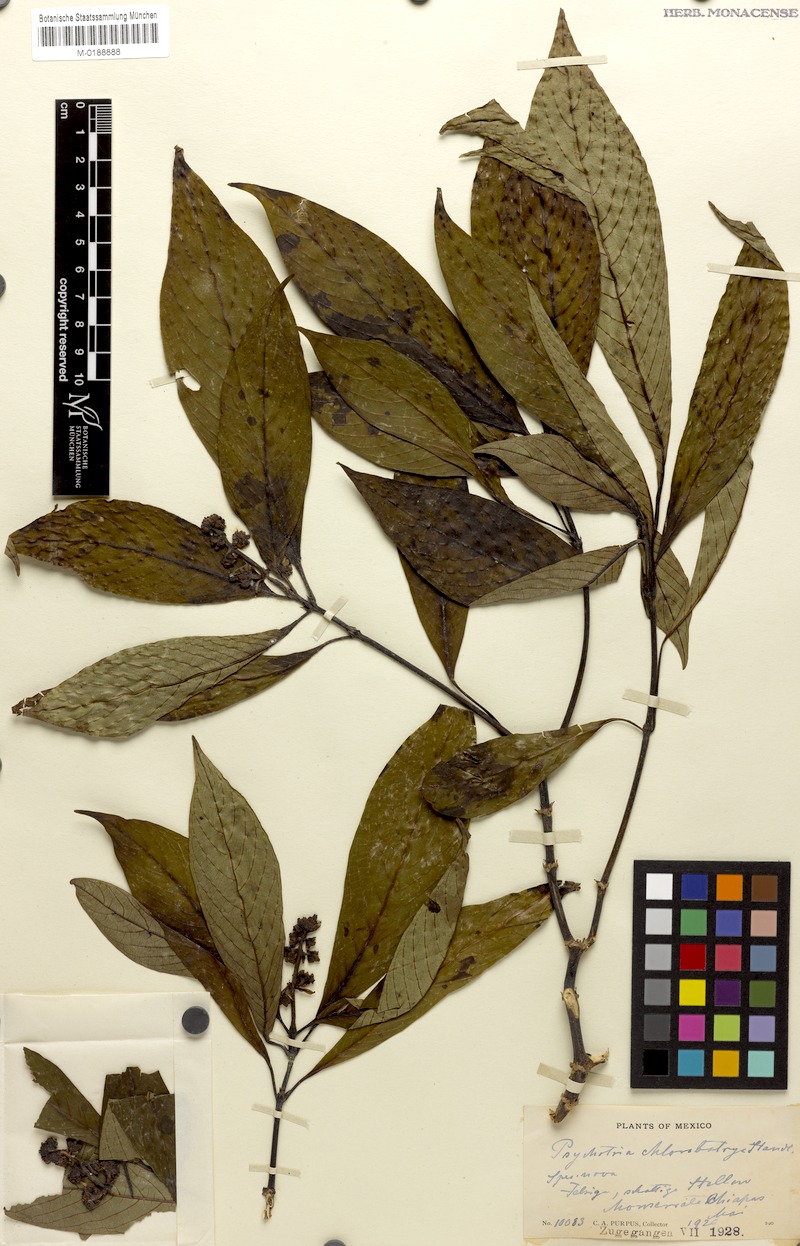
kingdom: Plantae
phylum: Tracheophyta
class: Magnoliopsida
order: Gentianales
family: Rubiaceae
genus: Palicourea
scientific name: Palicourea chlorobotrya
